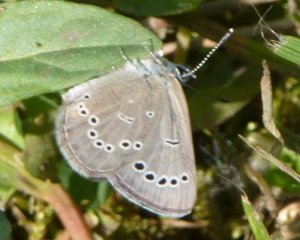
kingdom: Animalia
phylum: Arthropoda
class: Insecta
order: Lepidoptera
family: Lycaenidae
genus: Glaucopsyche
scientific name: Glaucopsyche lygdamus
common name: Silvery Blue
